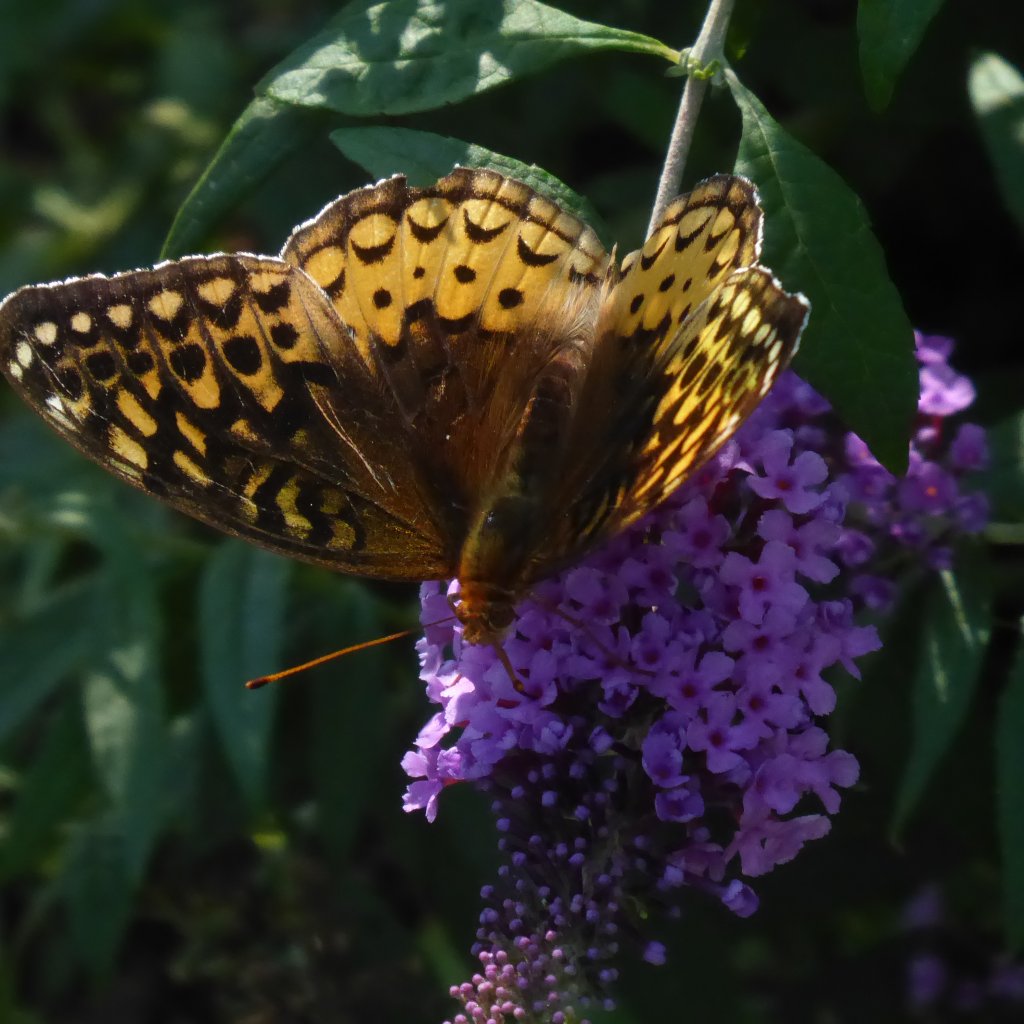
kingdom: Animalia
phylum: Arthropoda
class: Insecta
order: Lepidoptera
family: Nymphalidae
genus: Speyeria
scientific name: Speyeria cybele
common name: Great Spangled Fritillary
